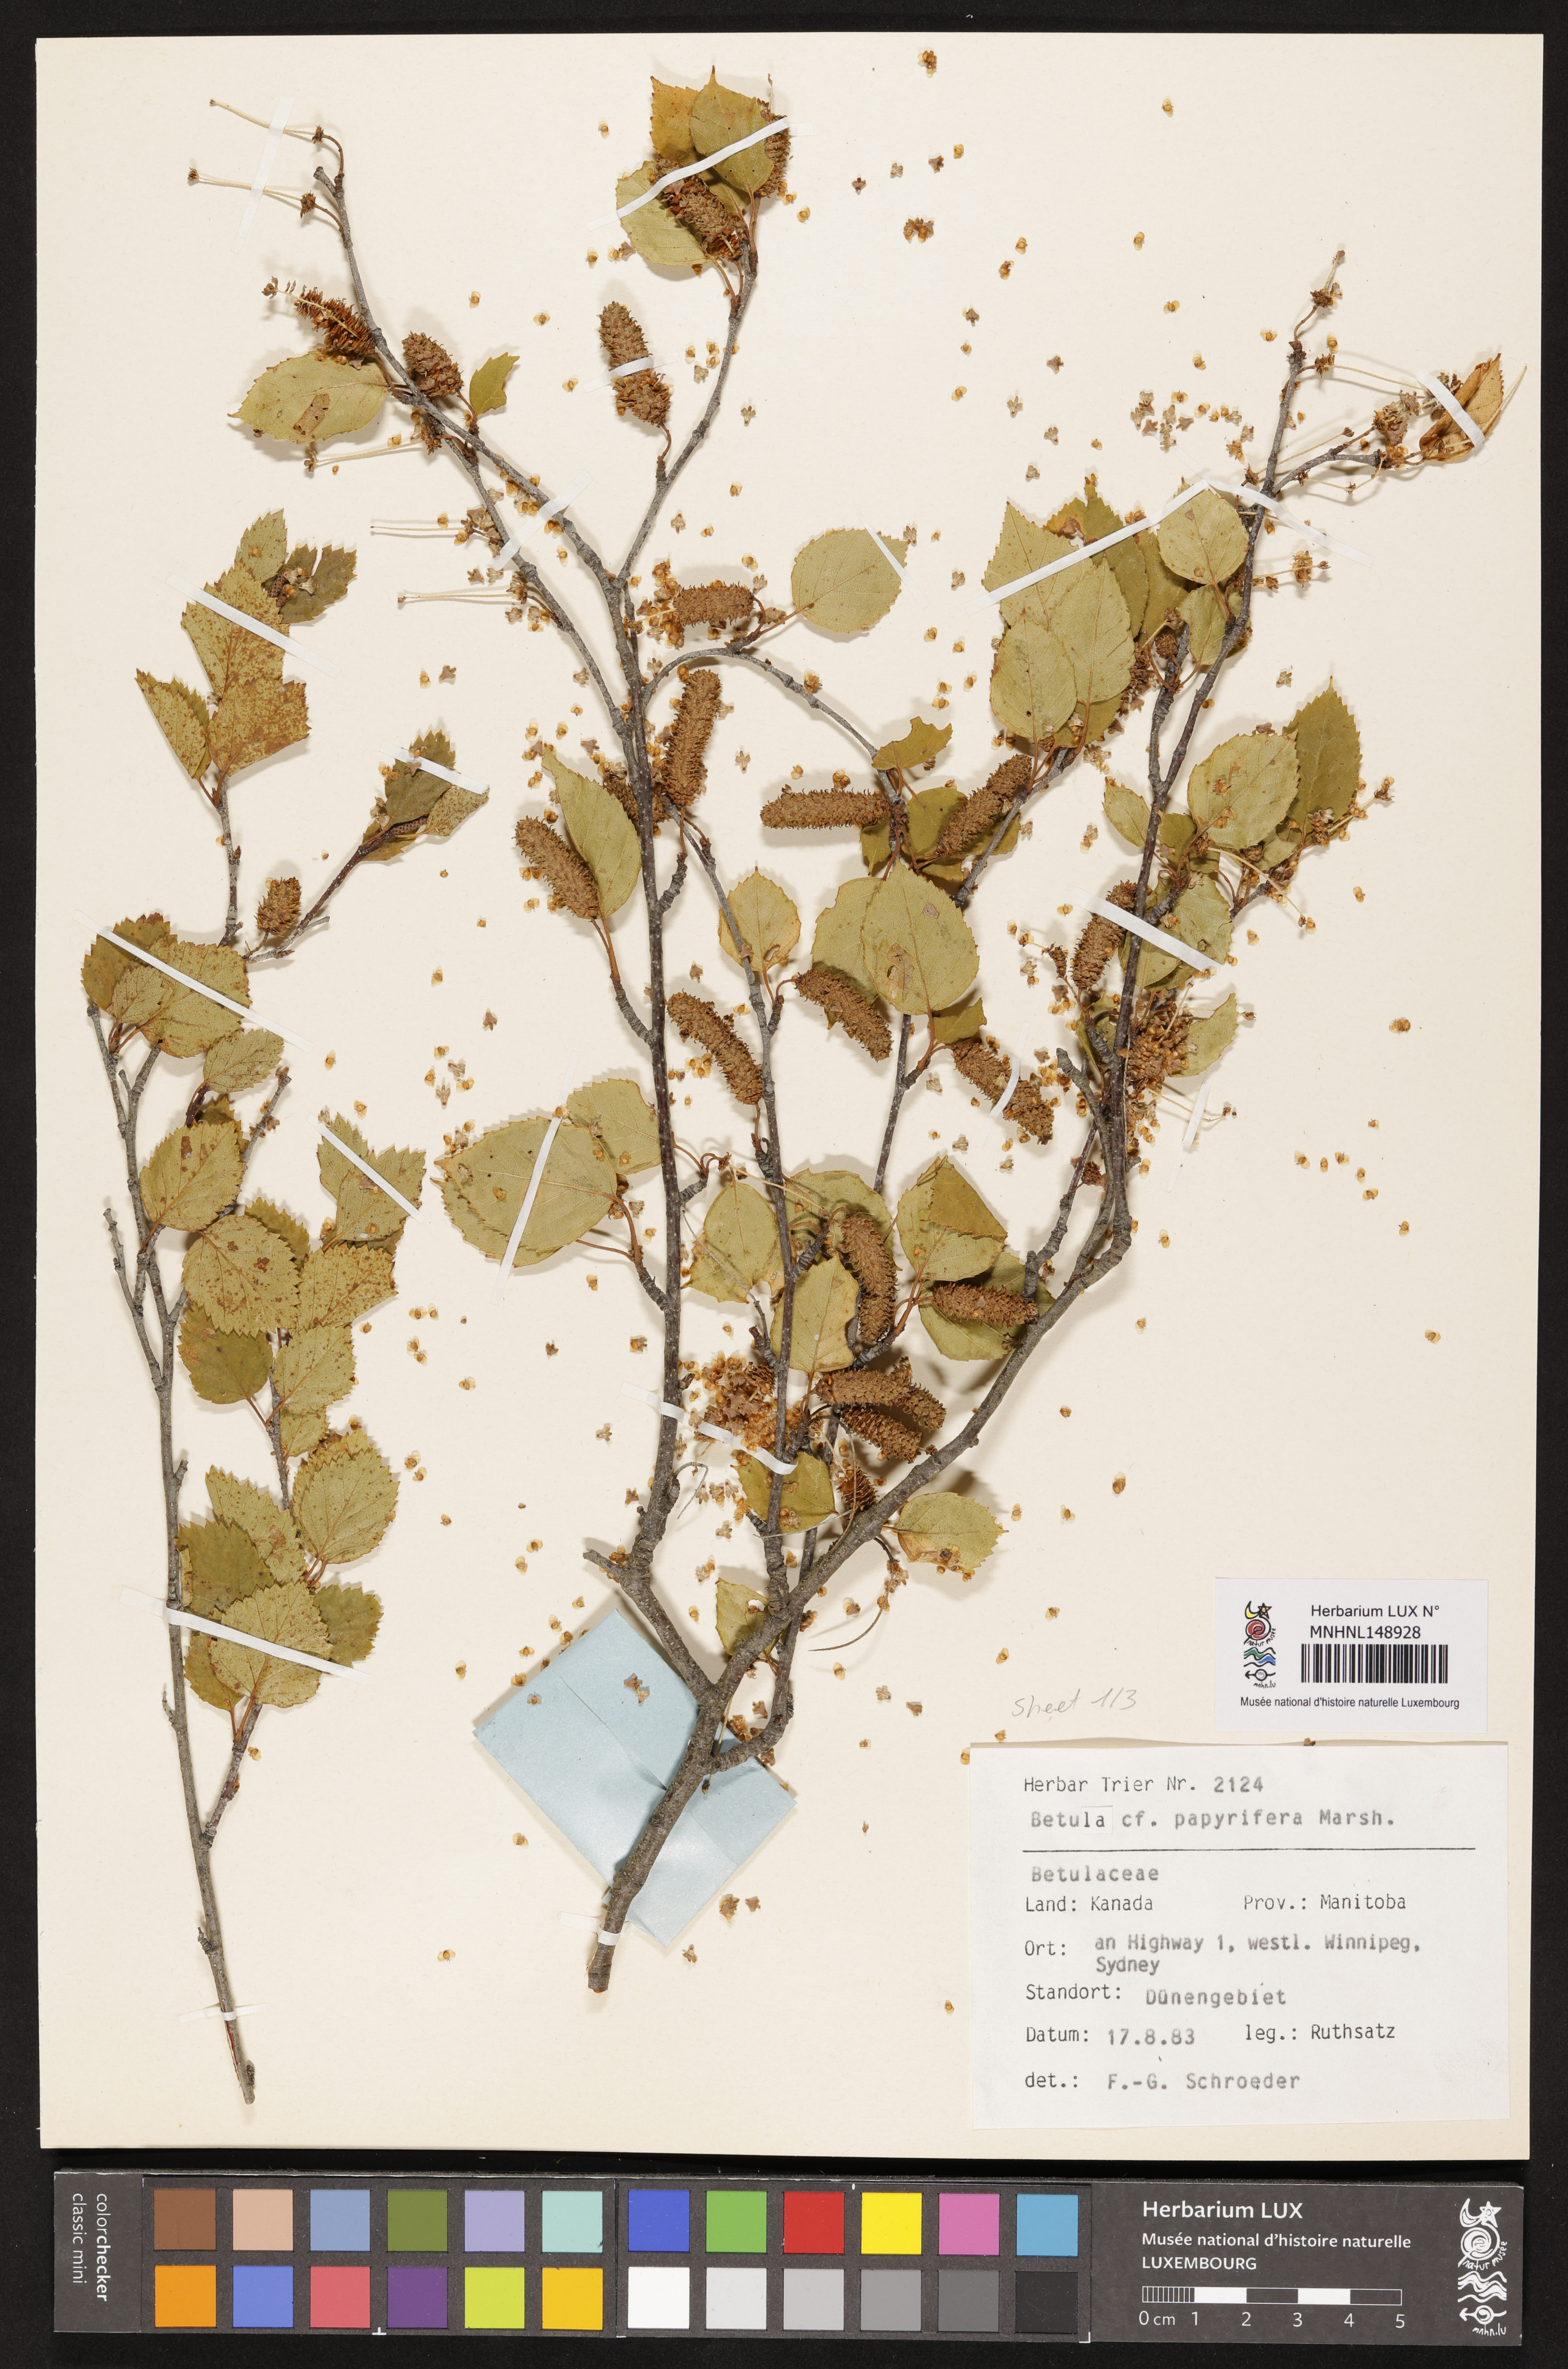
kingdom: Plantae
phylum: Tracheophyta
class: Magnoliopsida
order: Fagales
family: Betulaceae
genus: Betula
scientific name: Betula papyrifera
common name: Paper birch
